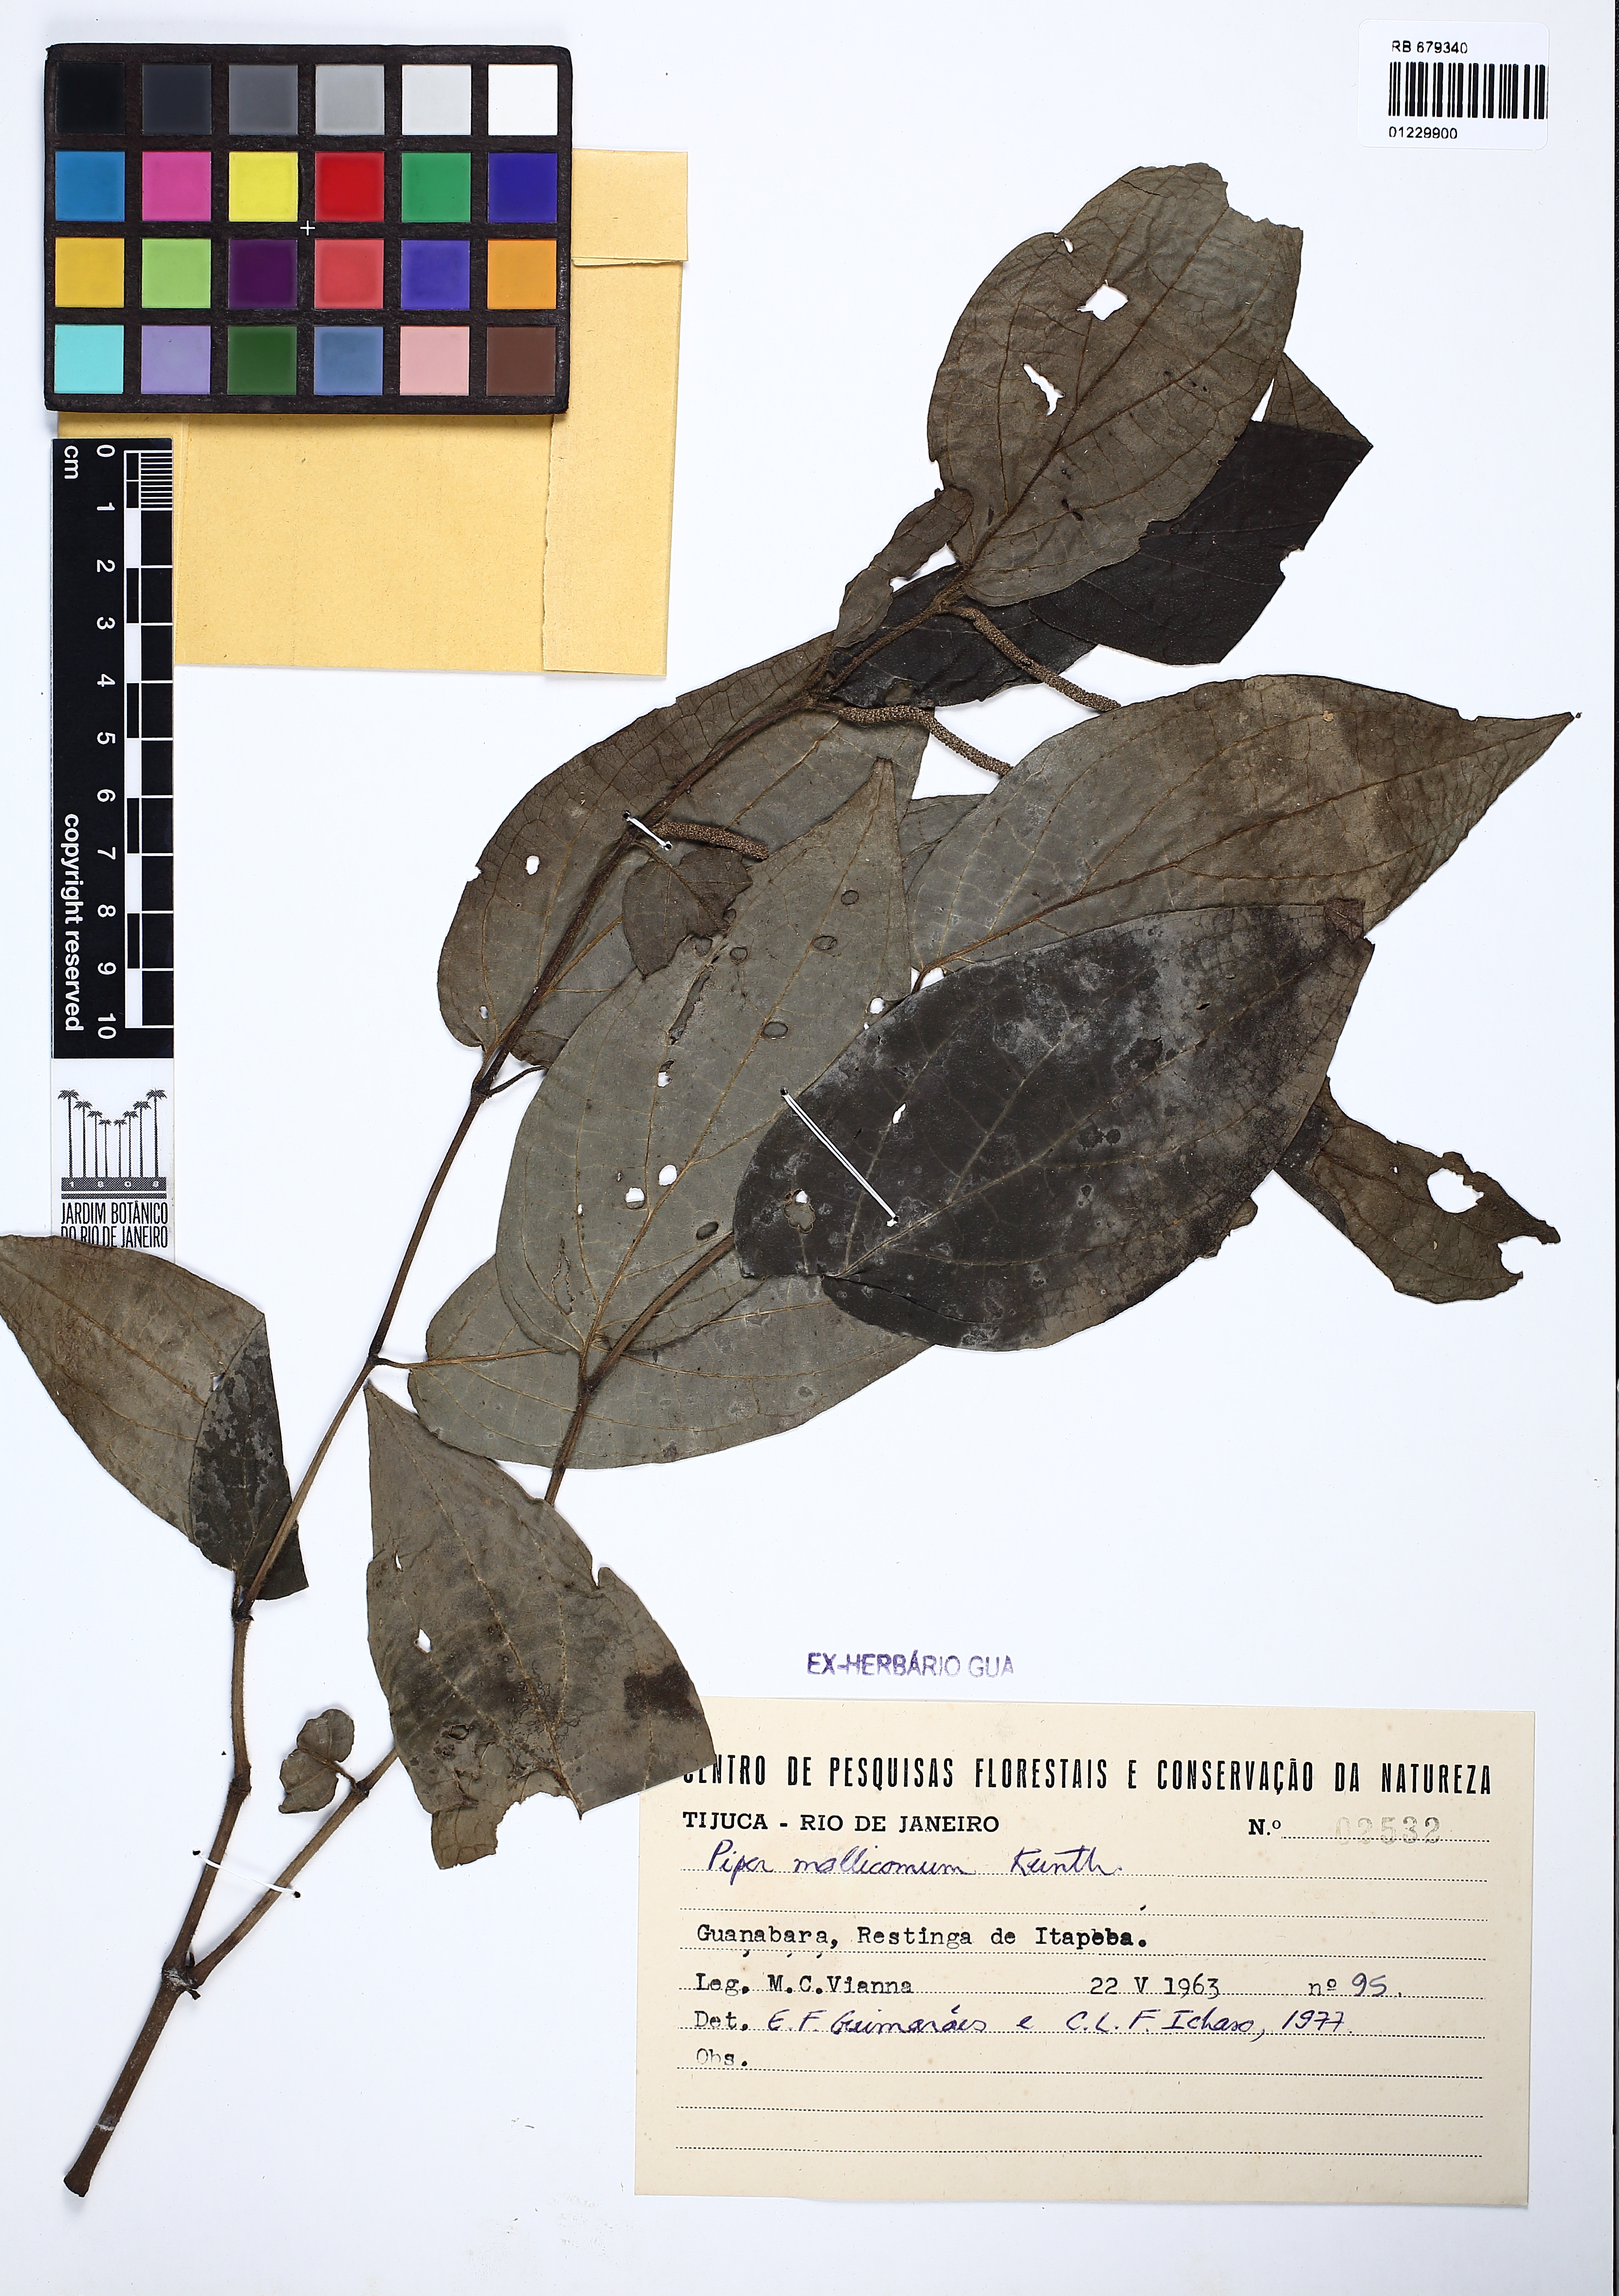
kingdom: Plantae
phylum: Tracheophyta
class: Magnoliopsida
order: Piperales
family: Piperaceae
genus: Piper
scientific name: Piper mollicomum
